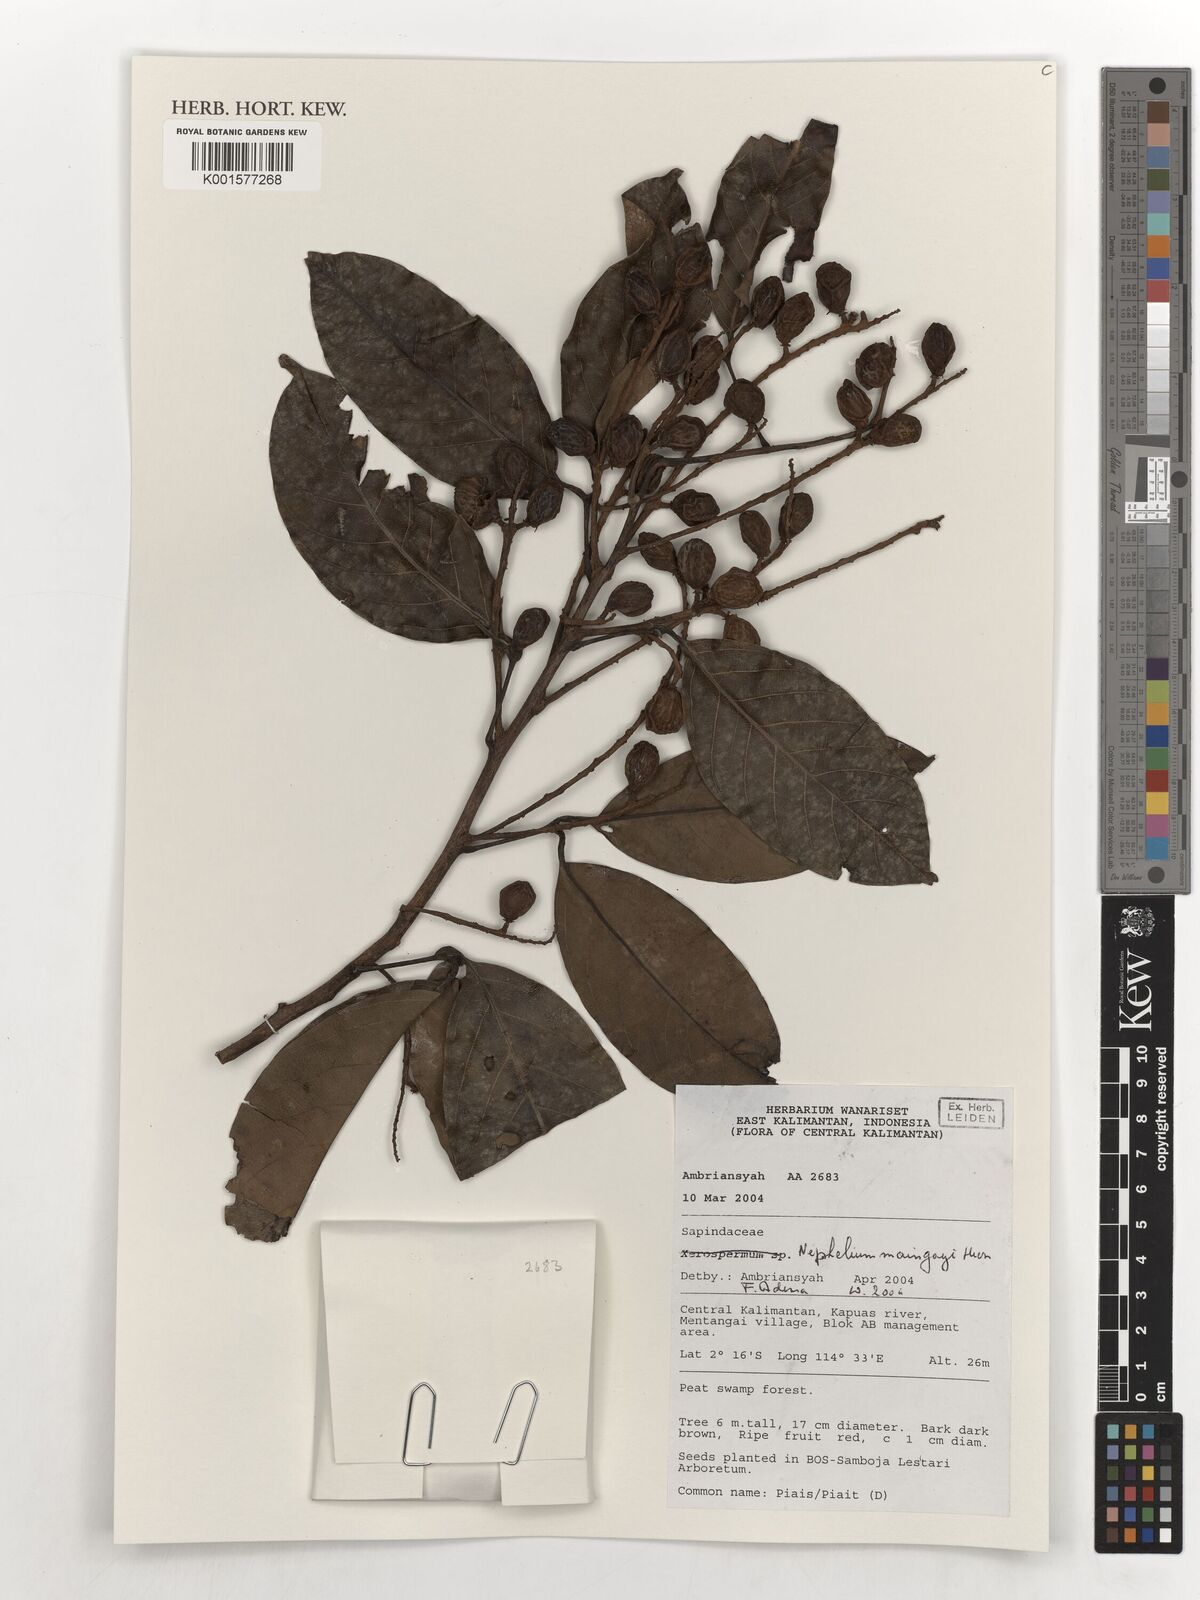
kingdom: Plantae
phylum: Tracheophyta
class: Magnoliopsida
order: Sapindales
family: Sapindaceae
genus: Nephelium
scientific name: Nephelium maingayi
